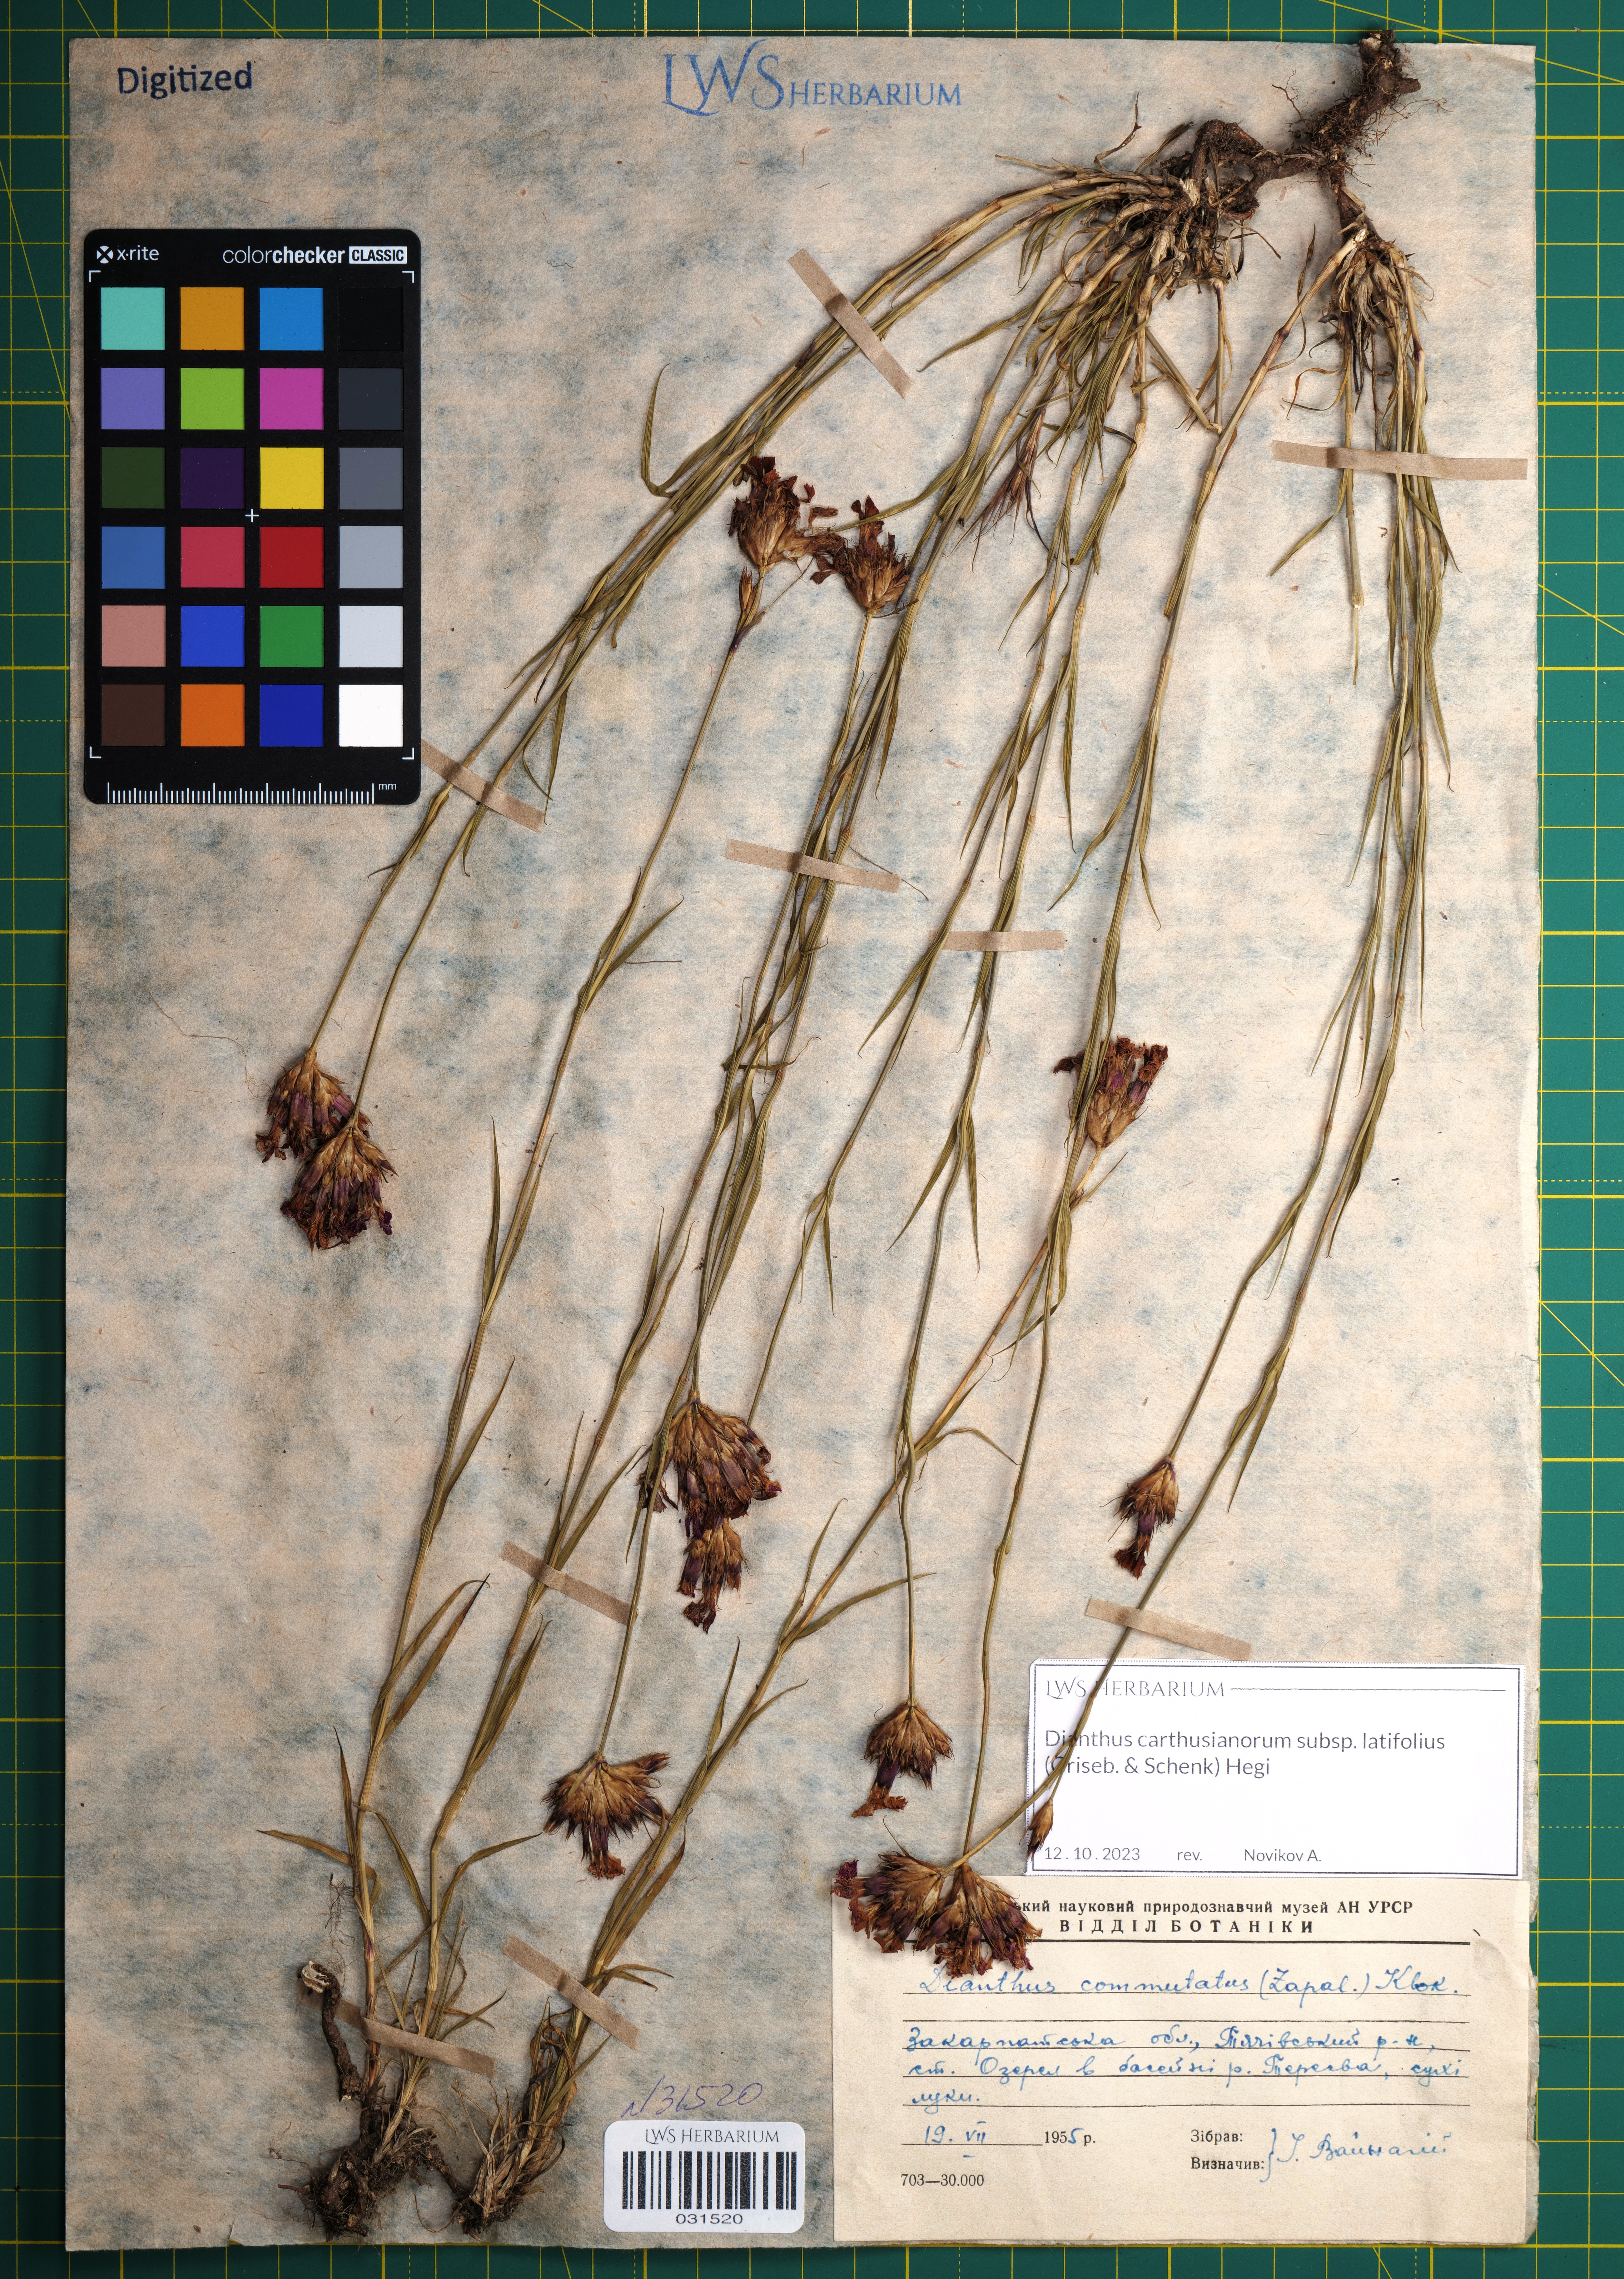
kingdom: Plantae
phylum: Tracheophyta
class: Magnoliopsida
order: Caryophyllales
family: Caryophyllaceae
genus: Dianthus
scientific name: Dianthus carthusianorum
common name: Carthusian pink
